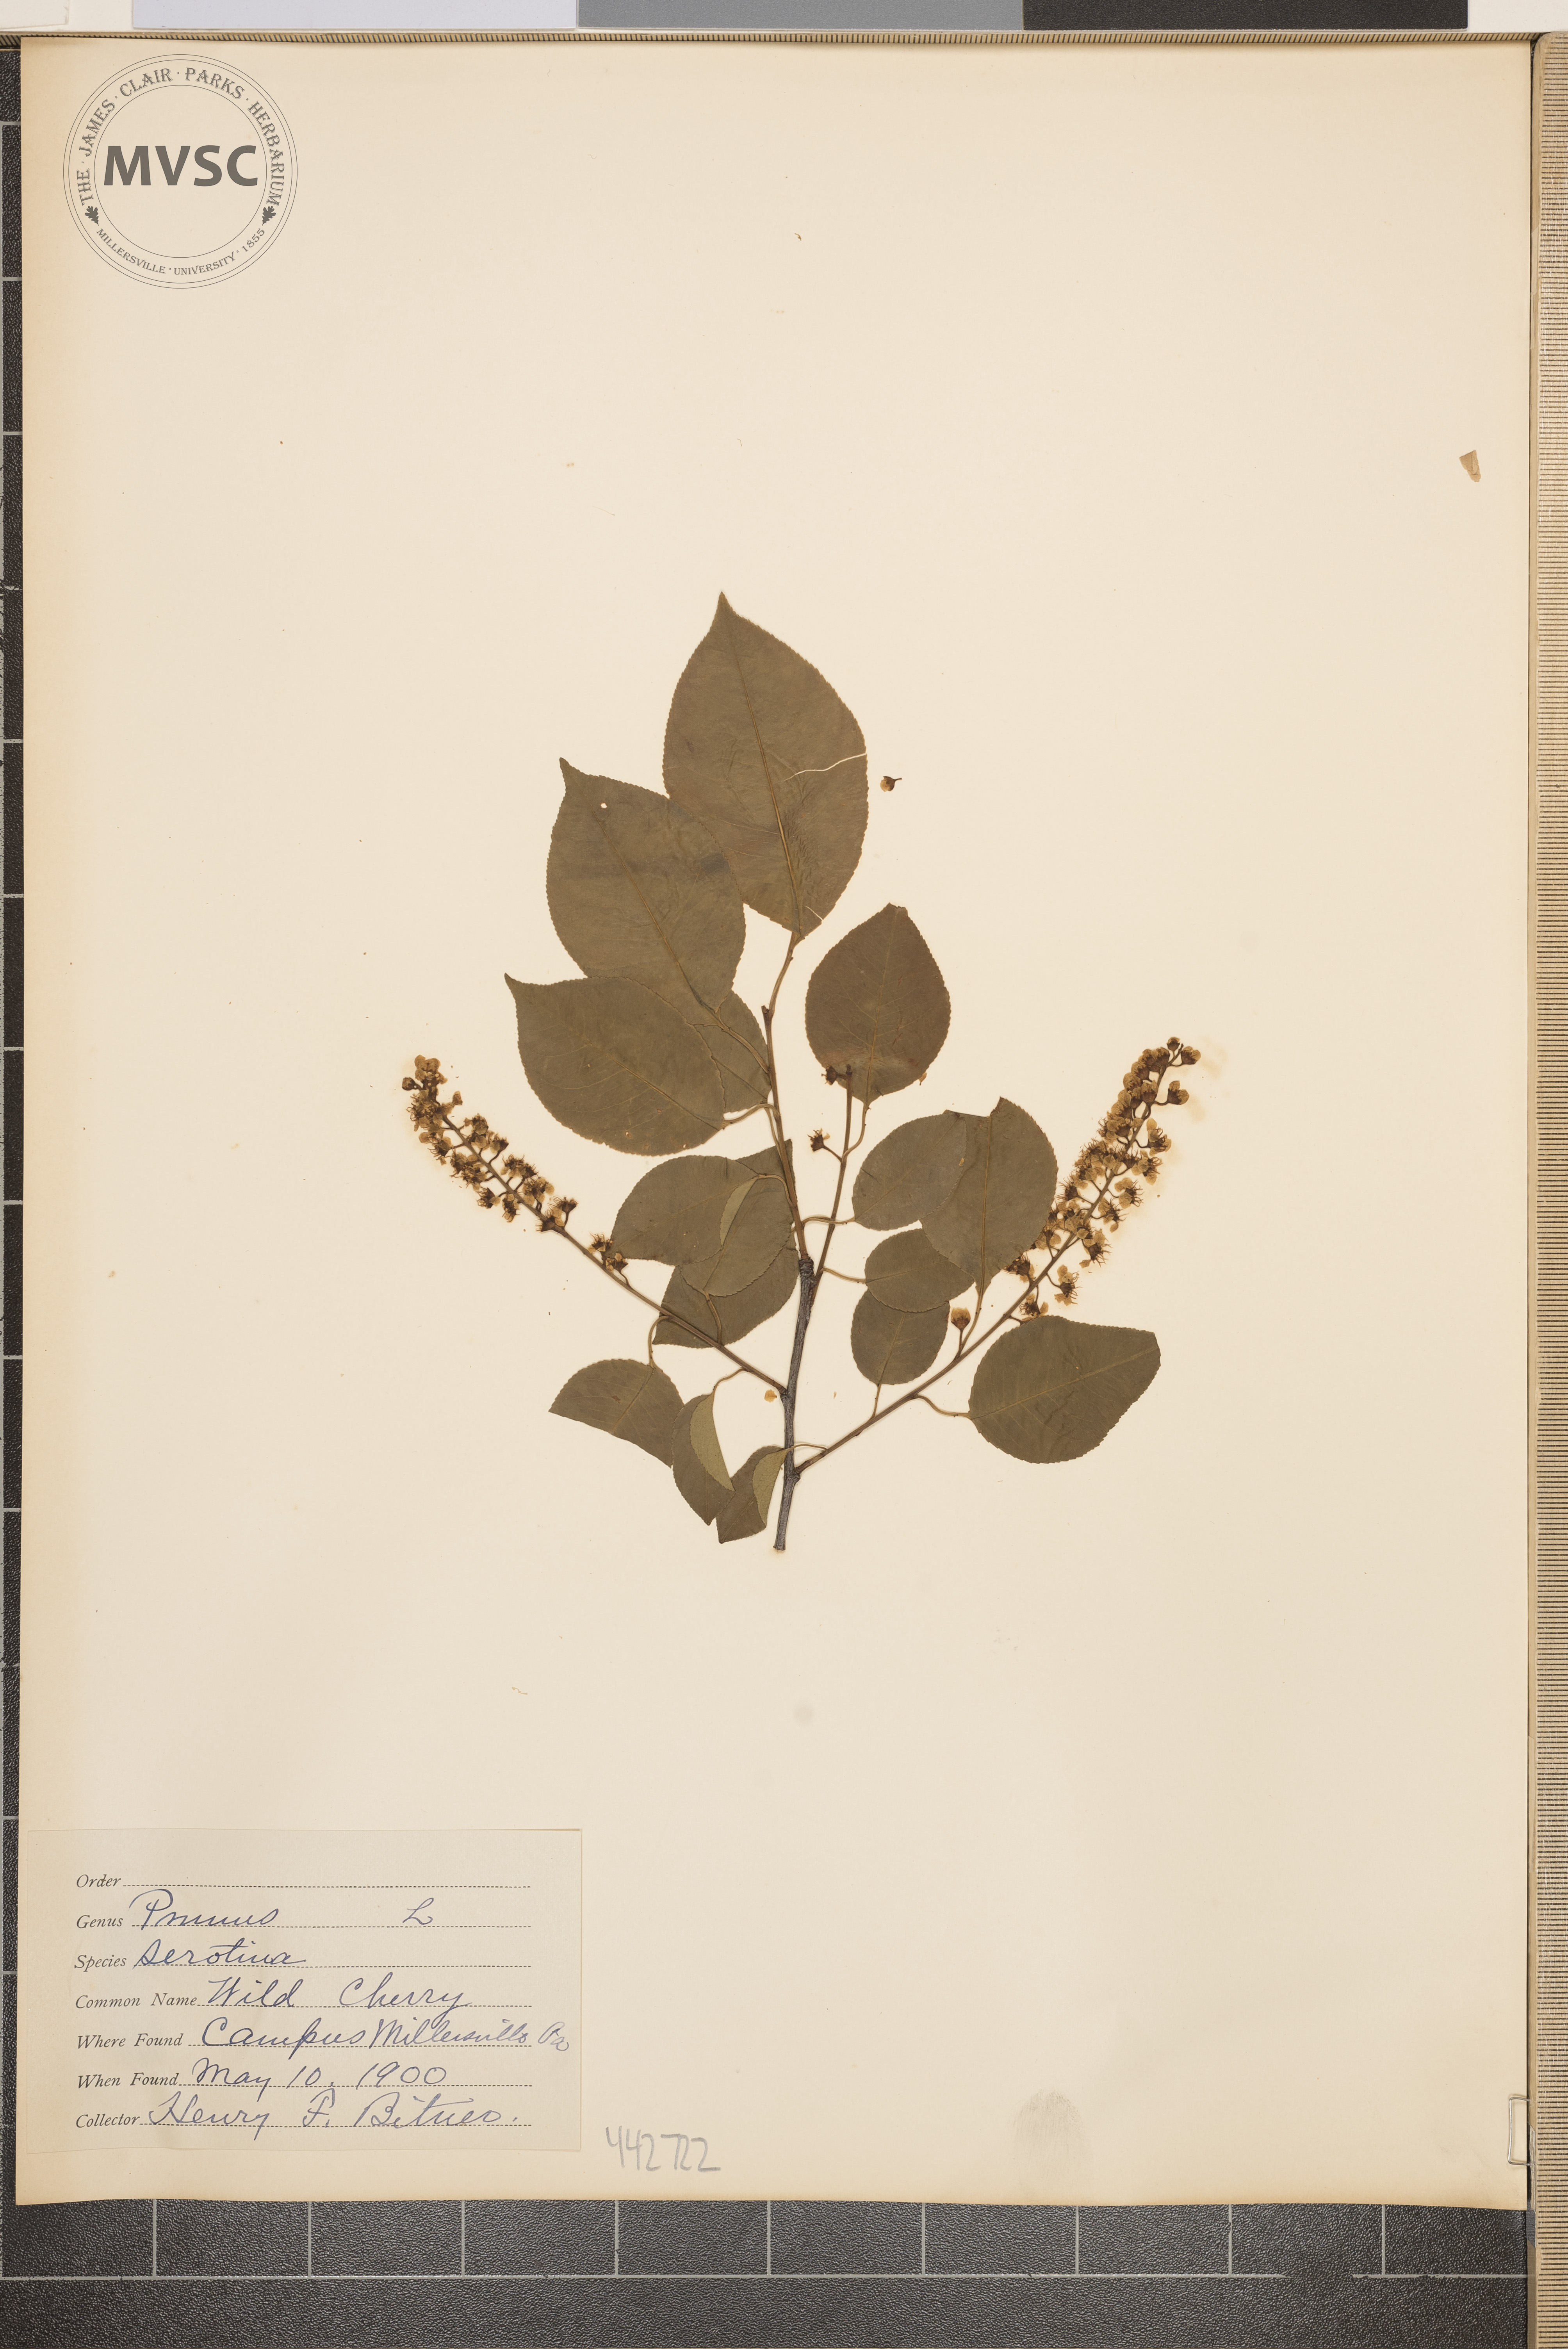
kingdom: Plantae
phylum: Tracheophyta
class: Magnoliopsida
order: Rosales
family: Rosaceae
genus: Prunus
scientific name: Prunus serotina
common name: Wild cherry
